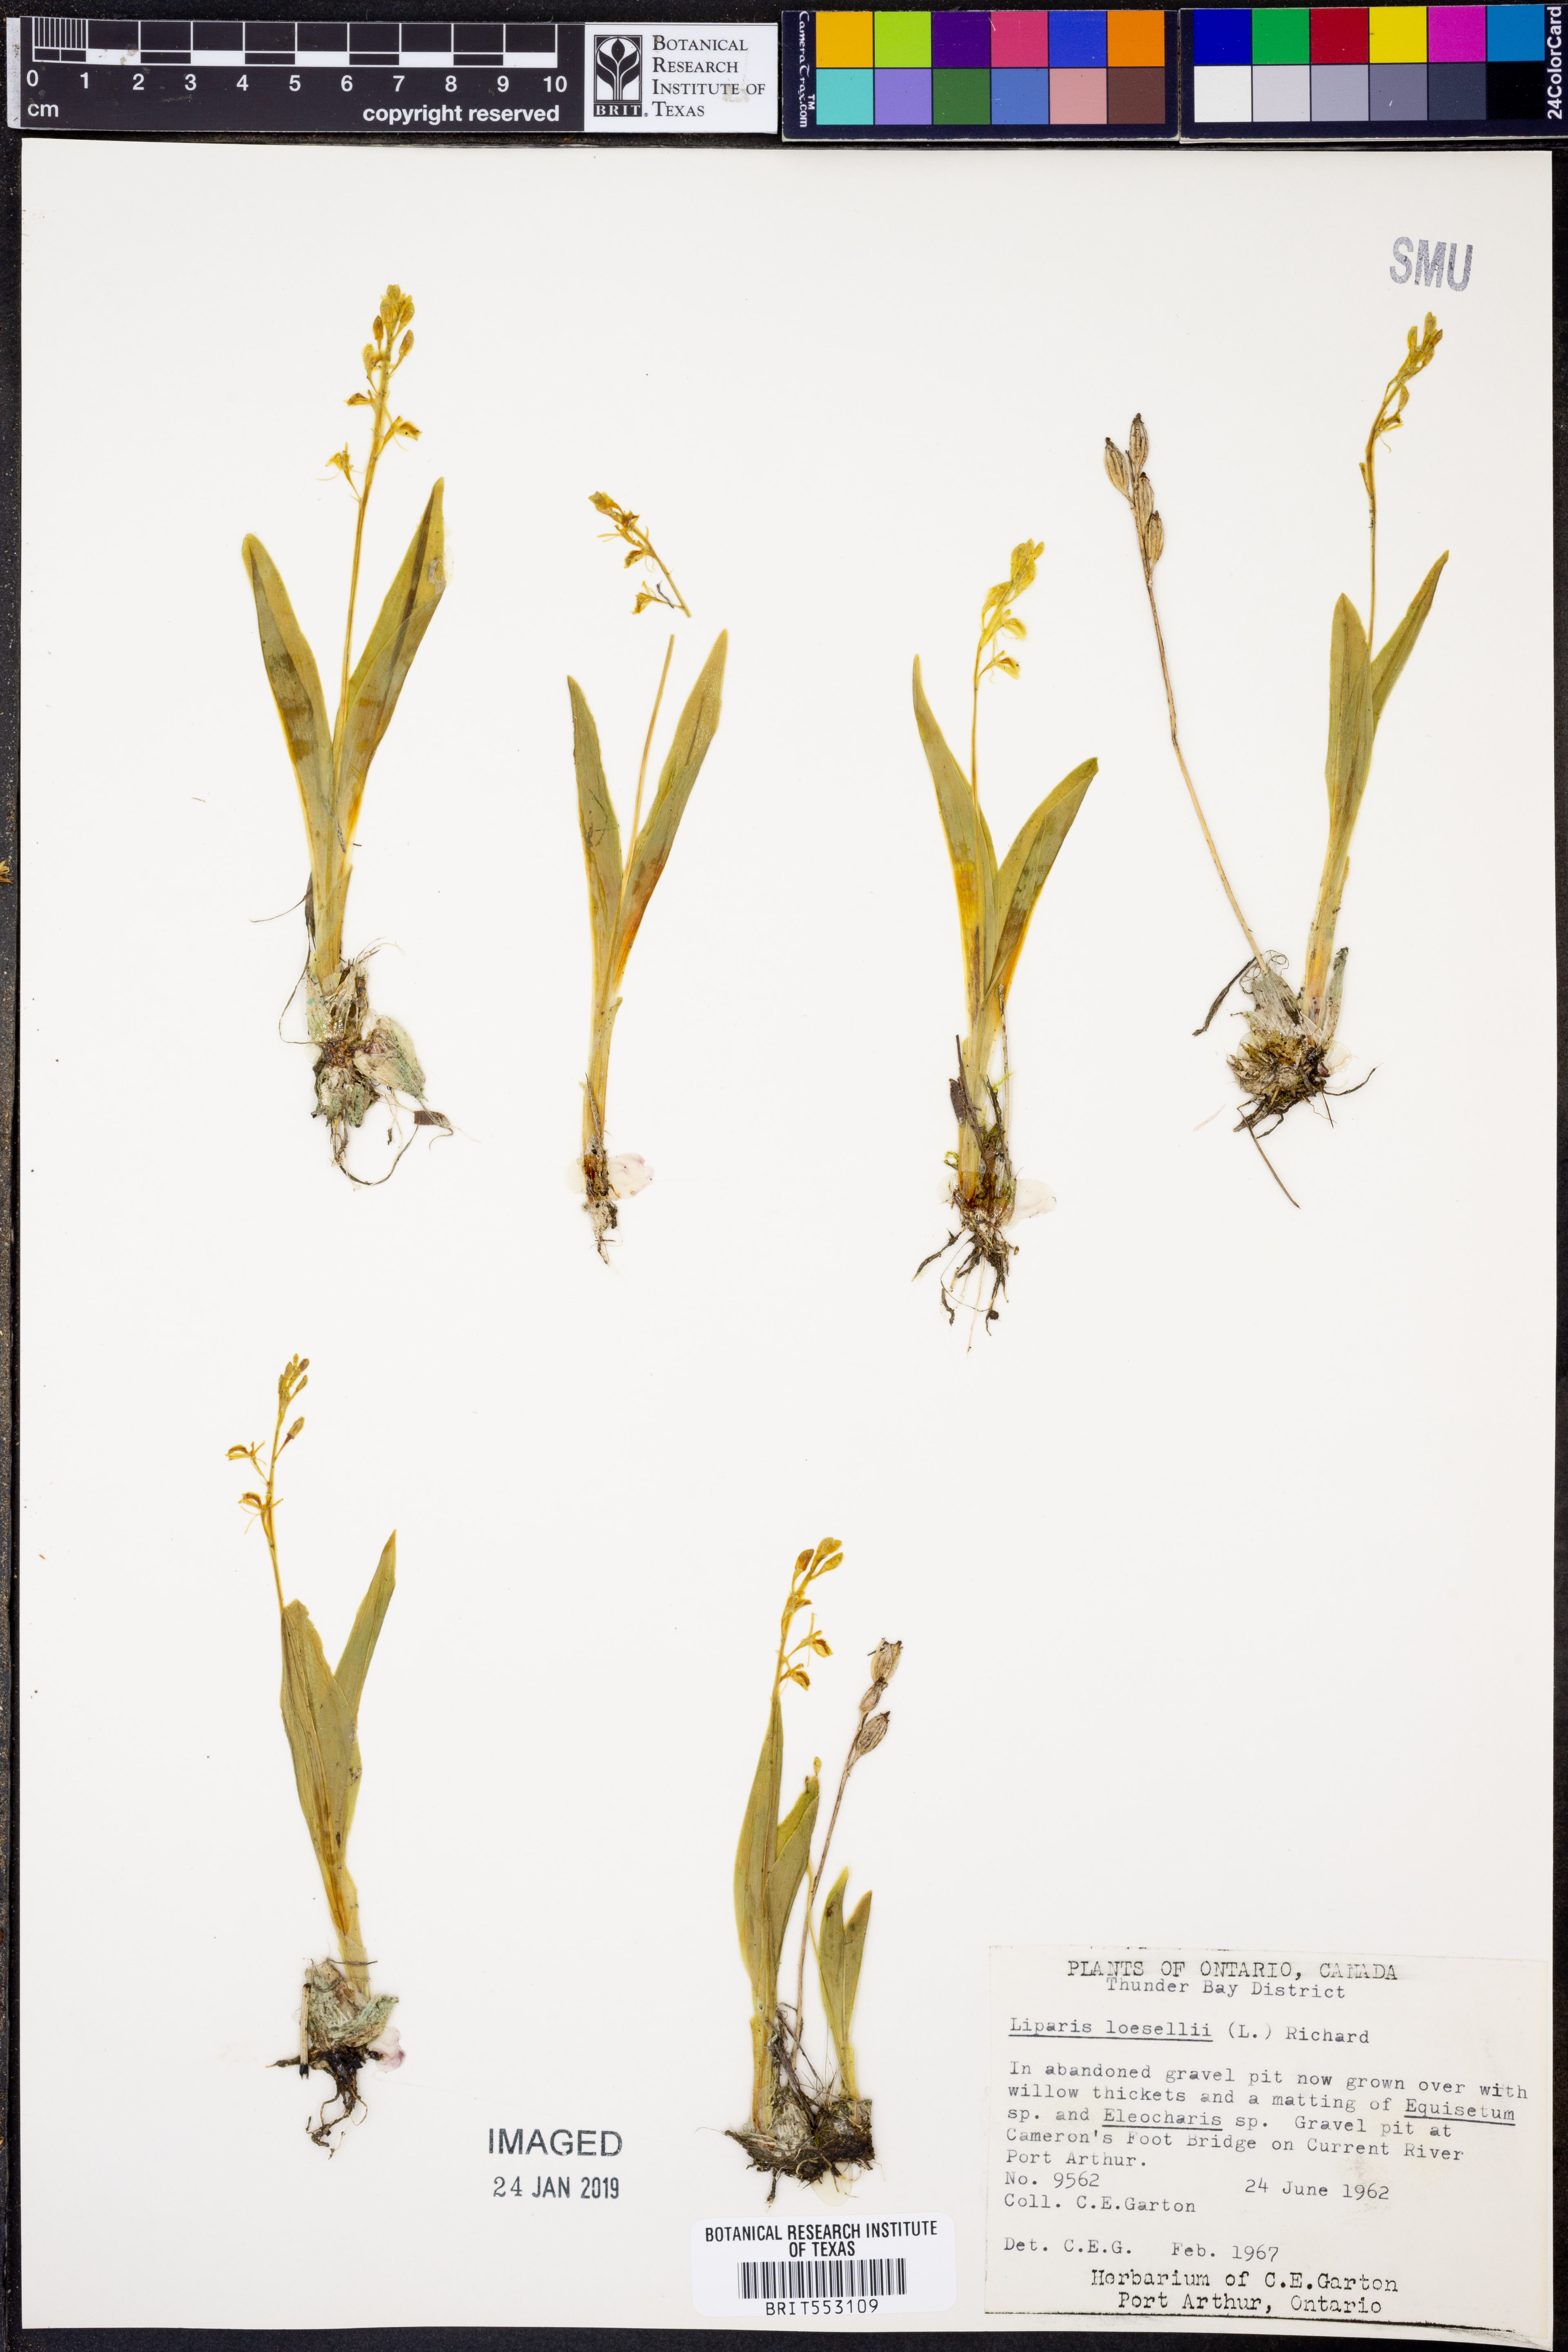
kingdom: Animalia
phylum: Arthropoda
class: Insecta
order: Coleoptera
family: Curculionidae
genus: Liparis
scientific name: Liparis loeselii
